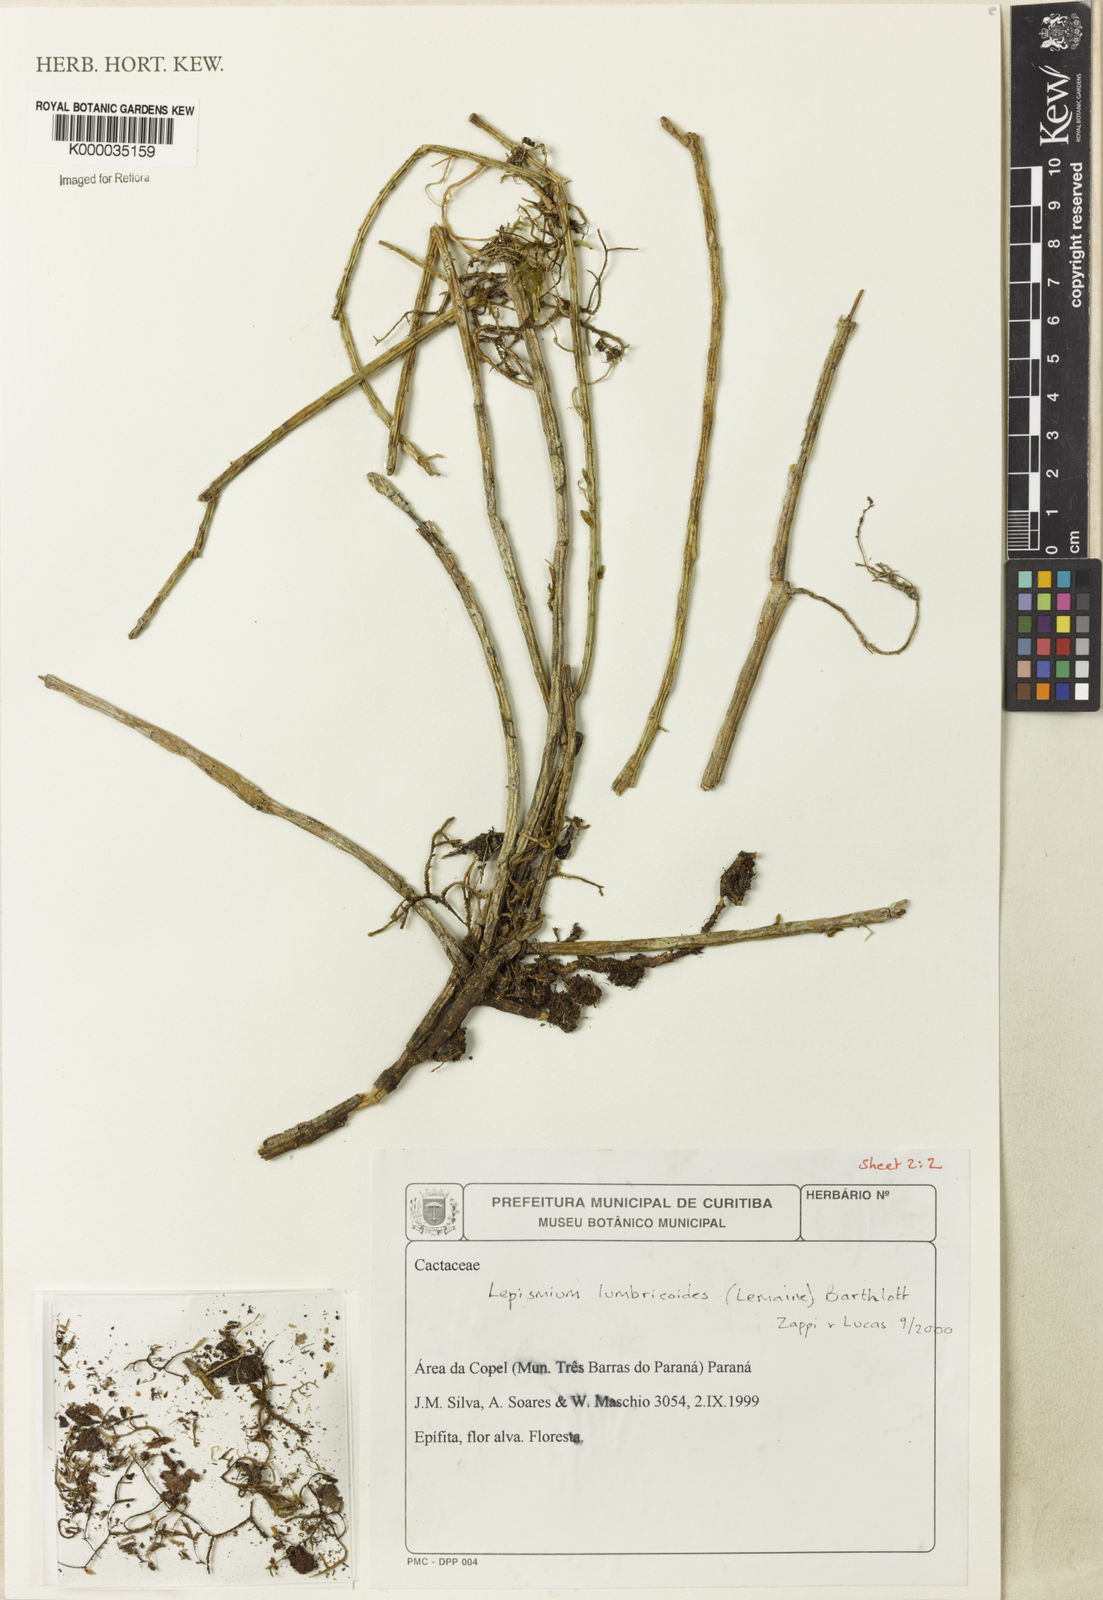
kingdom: Plantae
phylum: Tracheophyta
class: Magnoliopsida
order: Caryophyllales
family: Cactaceae
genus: Lepismium
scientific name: Lepismium lumbricoides
